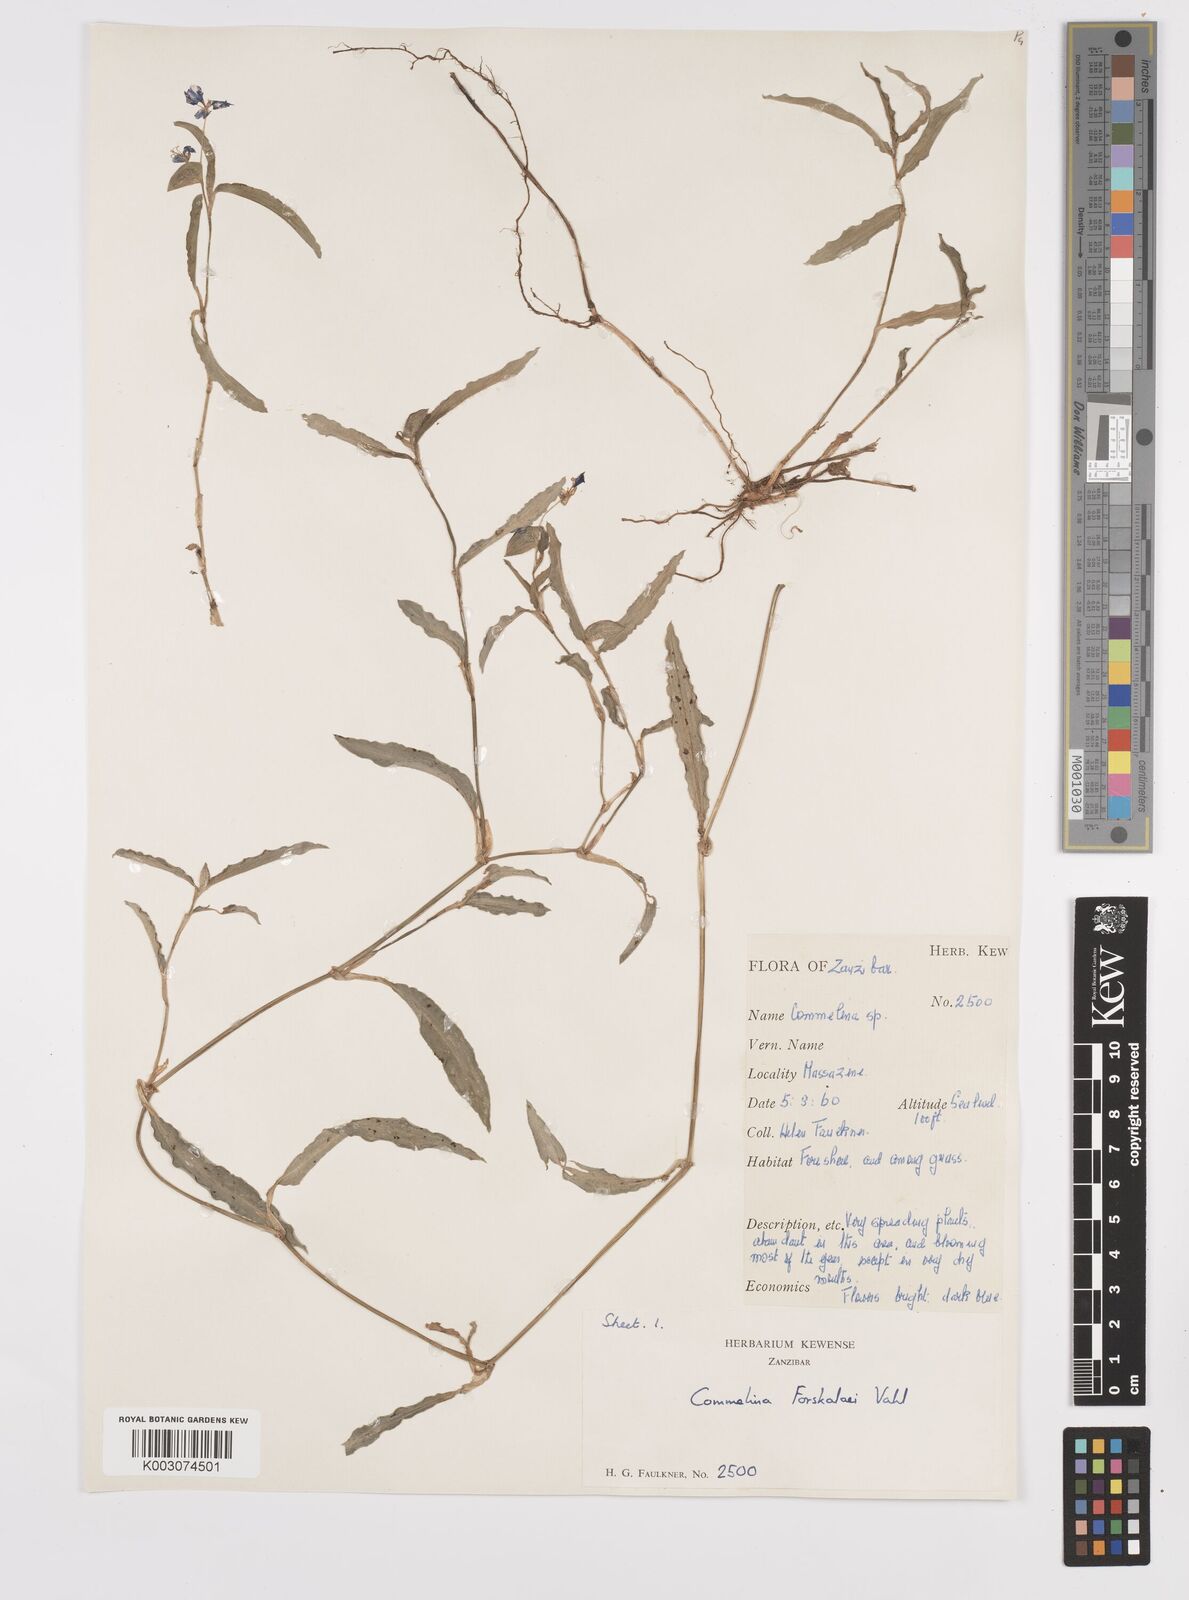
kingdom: Plantae
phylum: Tracheophyta
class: Liliopsida
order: Commelinales
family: Commelinaceae
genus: Commelina
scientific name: Commelina forskaolii
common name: Rat's ear
